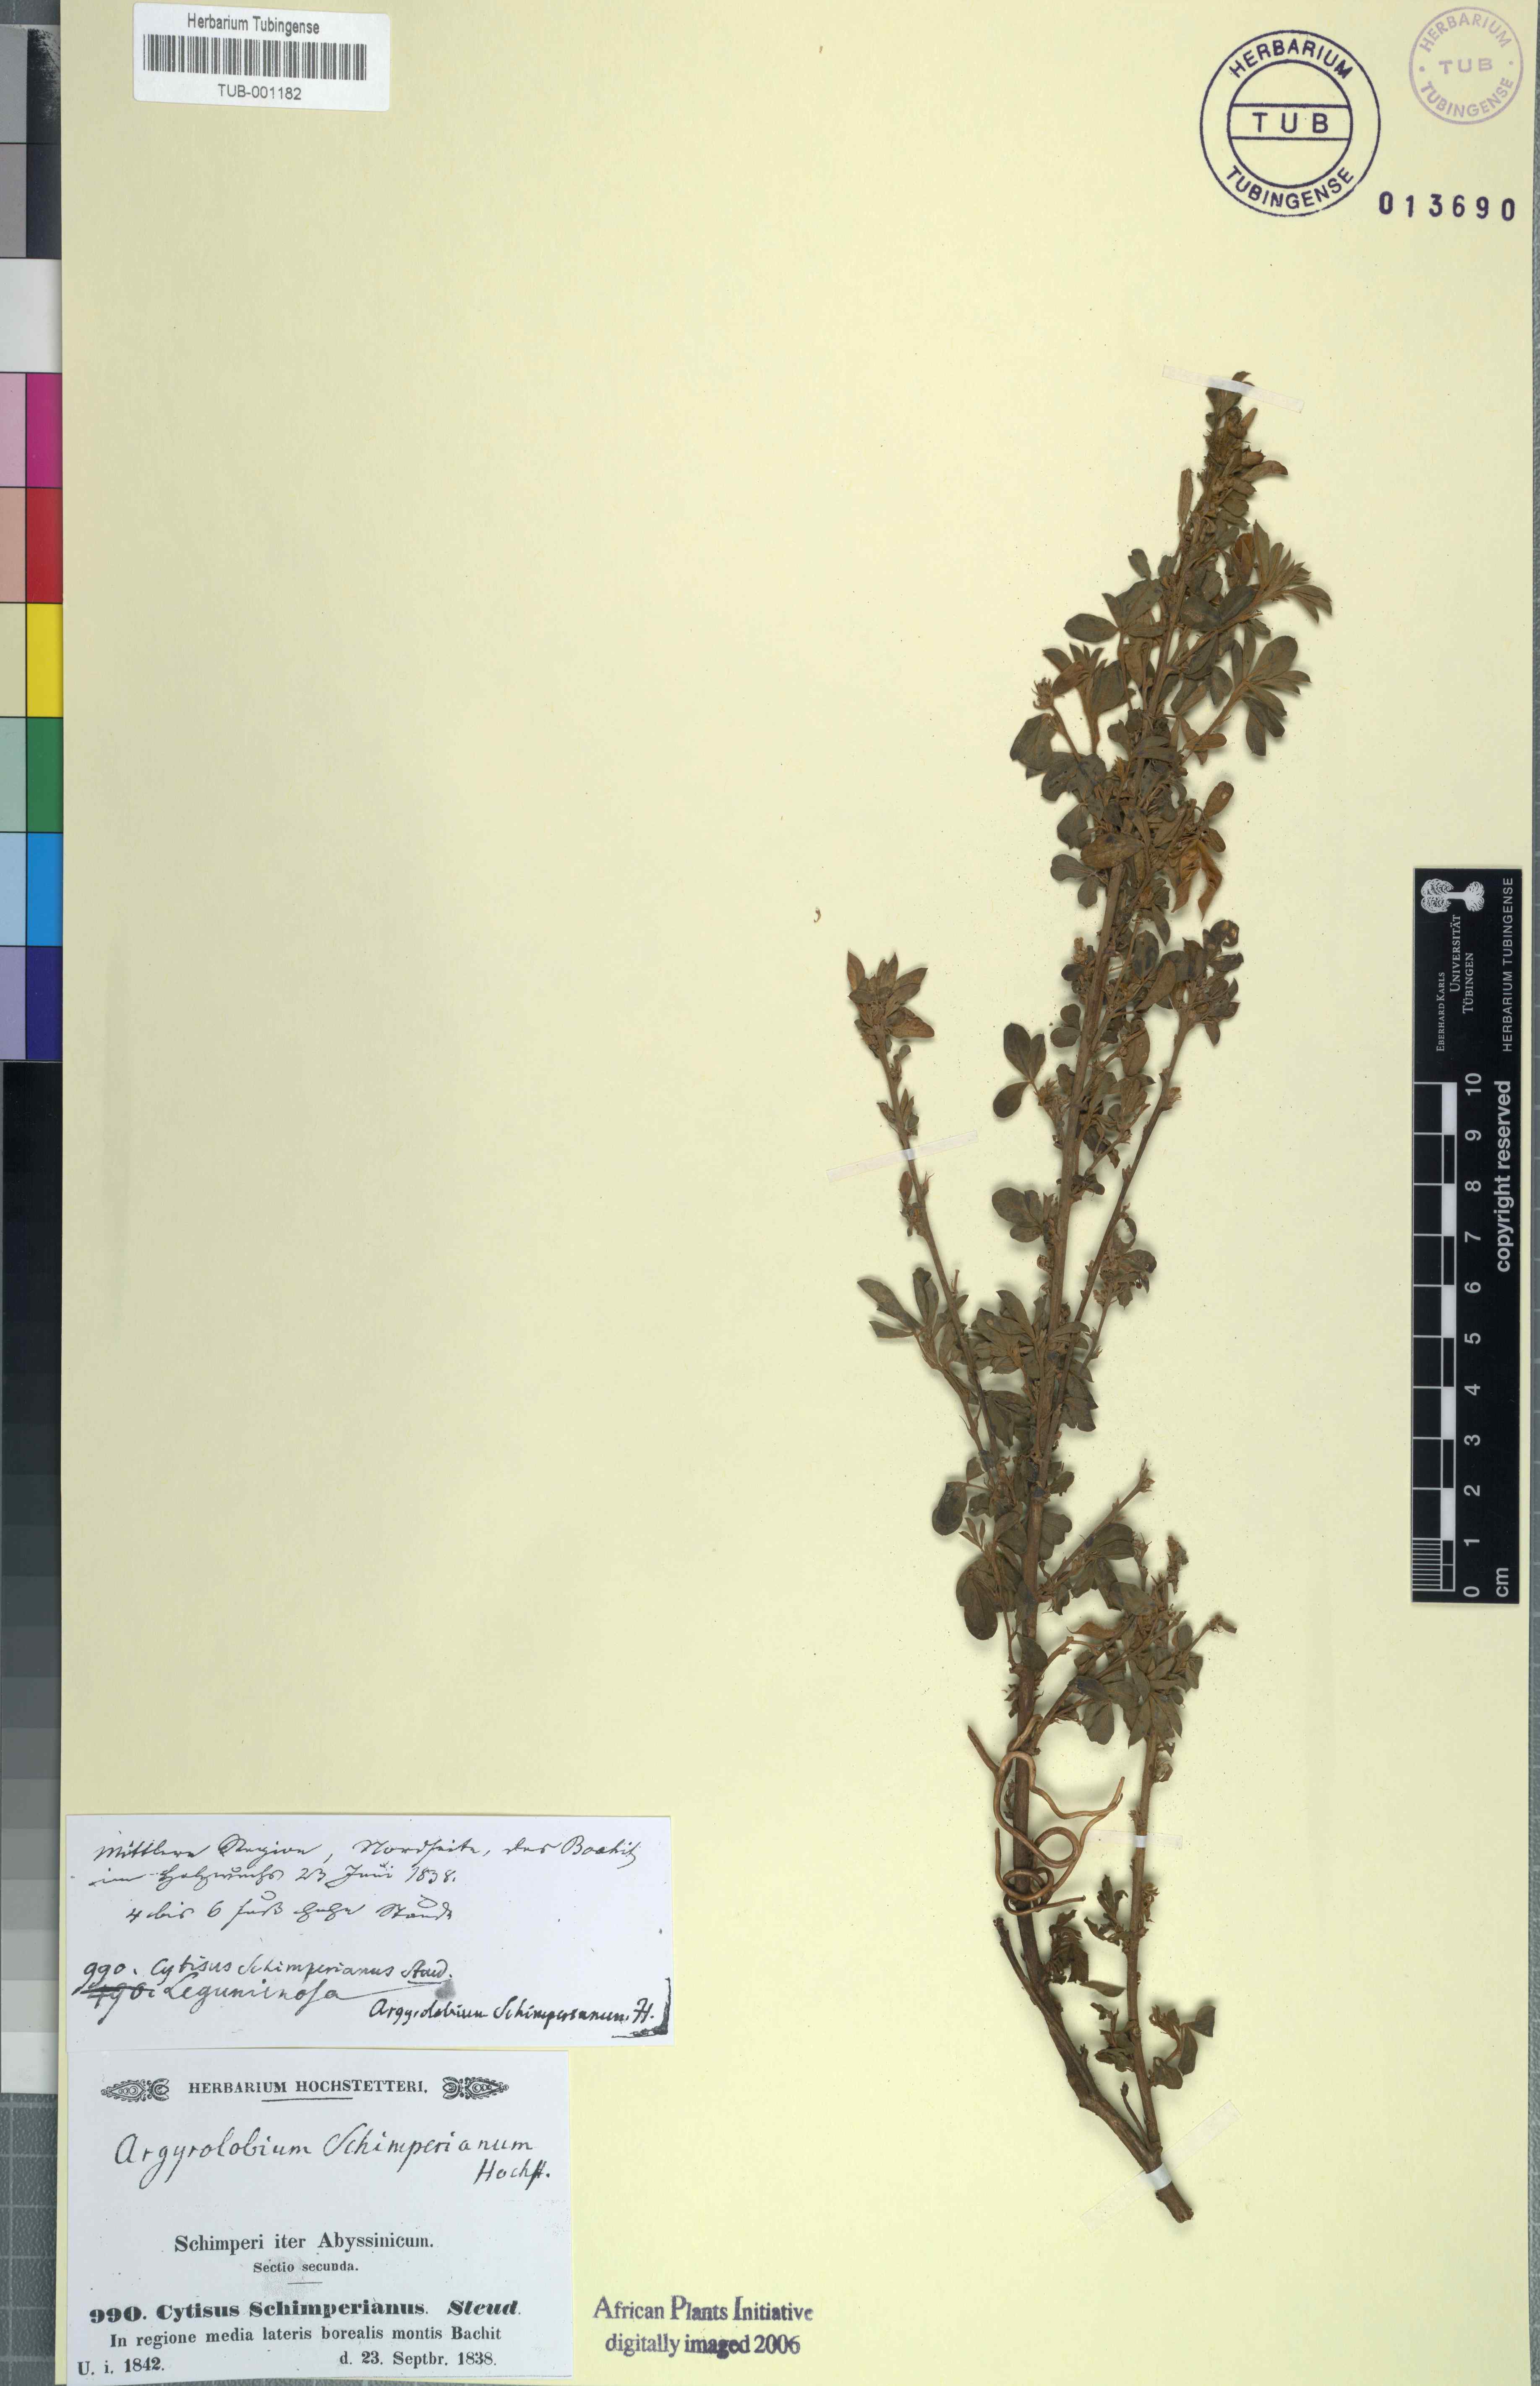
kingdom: Plantae
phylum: Tracheophyta
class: Magnoliopsida
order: Fabales
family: Fabaceae
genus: Argyrolobium
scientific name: Argyrolobium schimperianum
